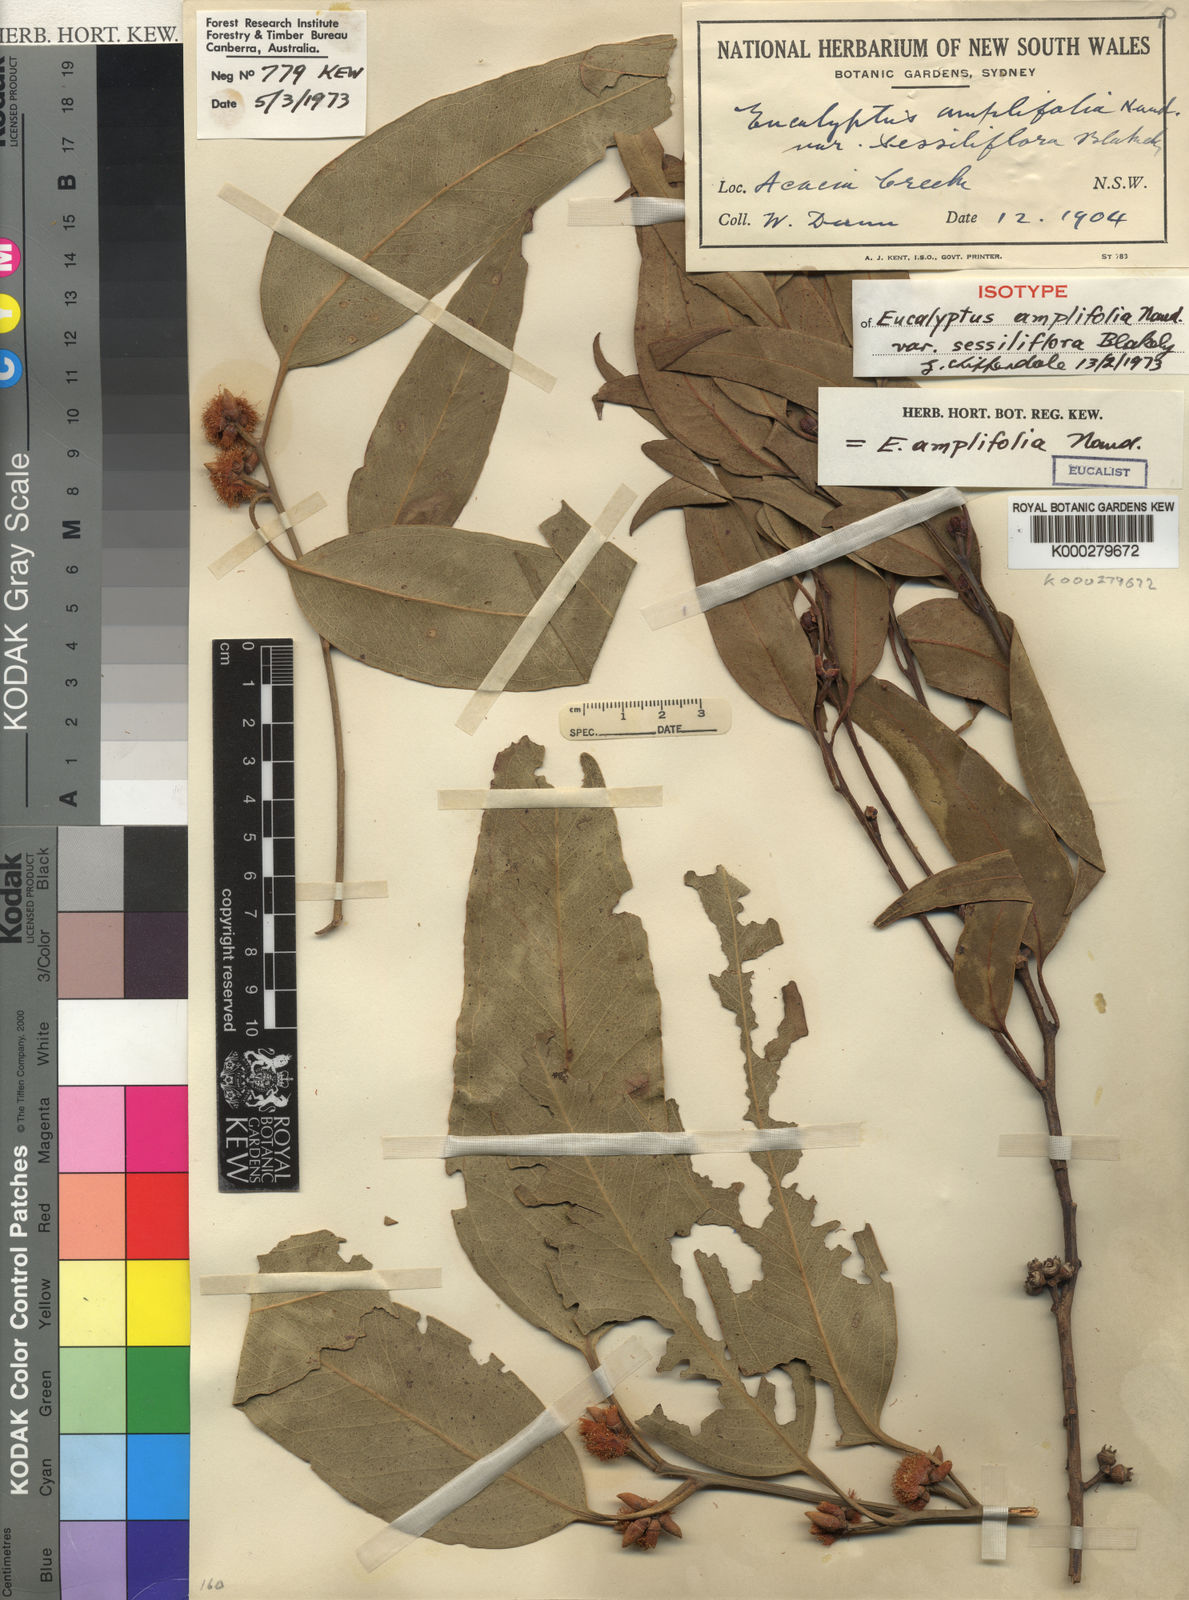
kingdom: Plantae
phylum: Tracheophyta
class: Magnoliopsida
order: Myrtales
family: Myrtaceae
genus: Eucalyptus
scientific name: Eucalyptus amplifolia
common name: Cabbage gum
